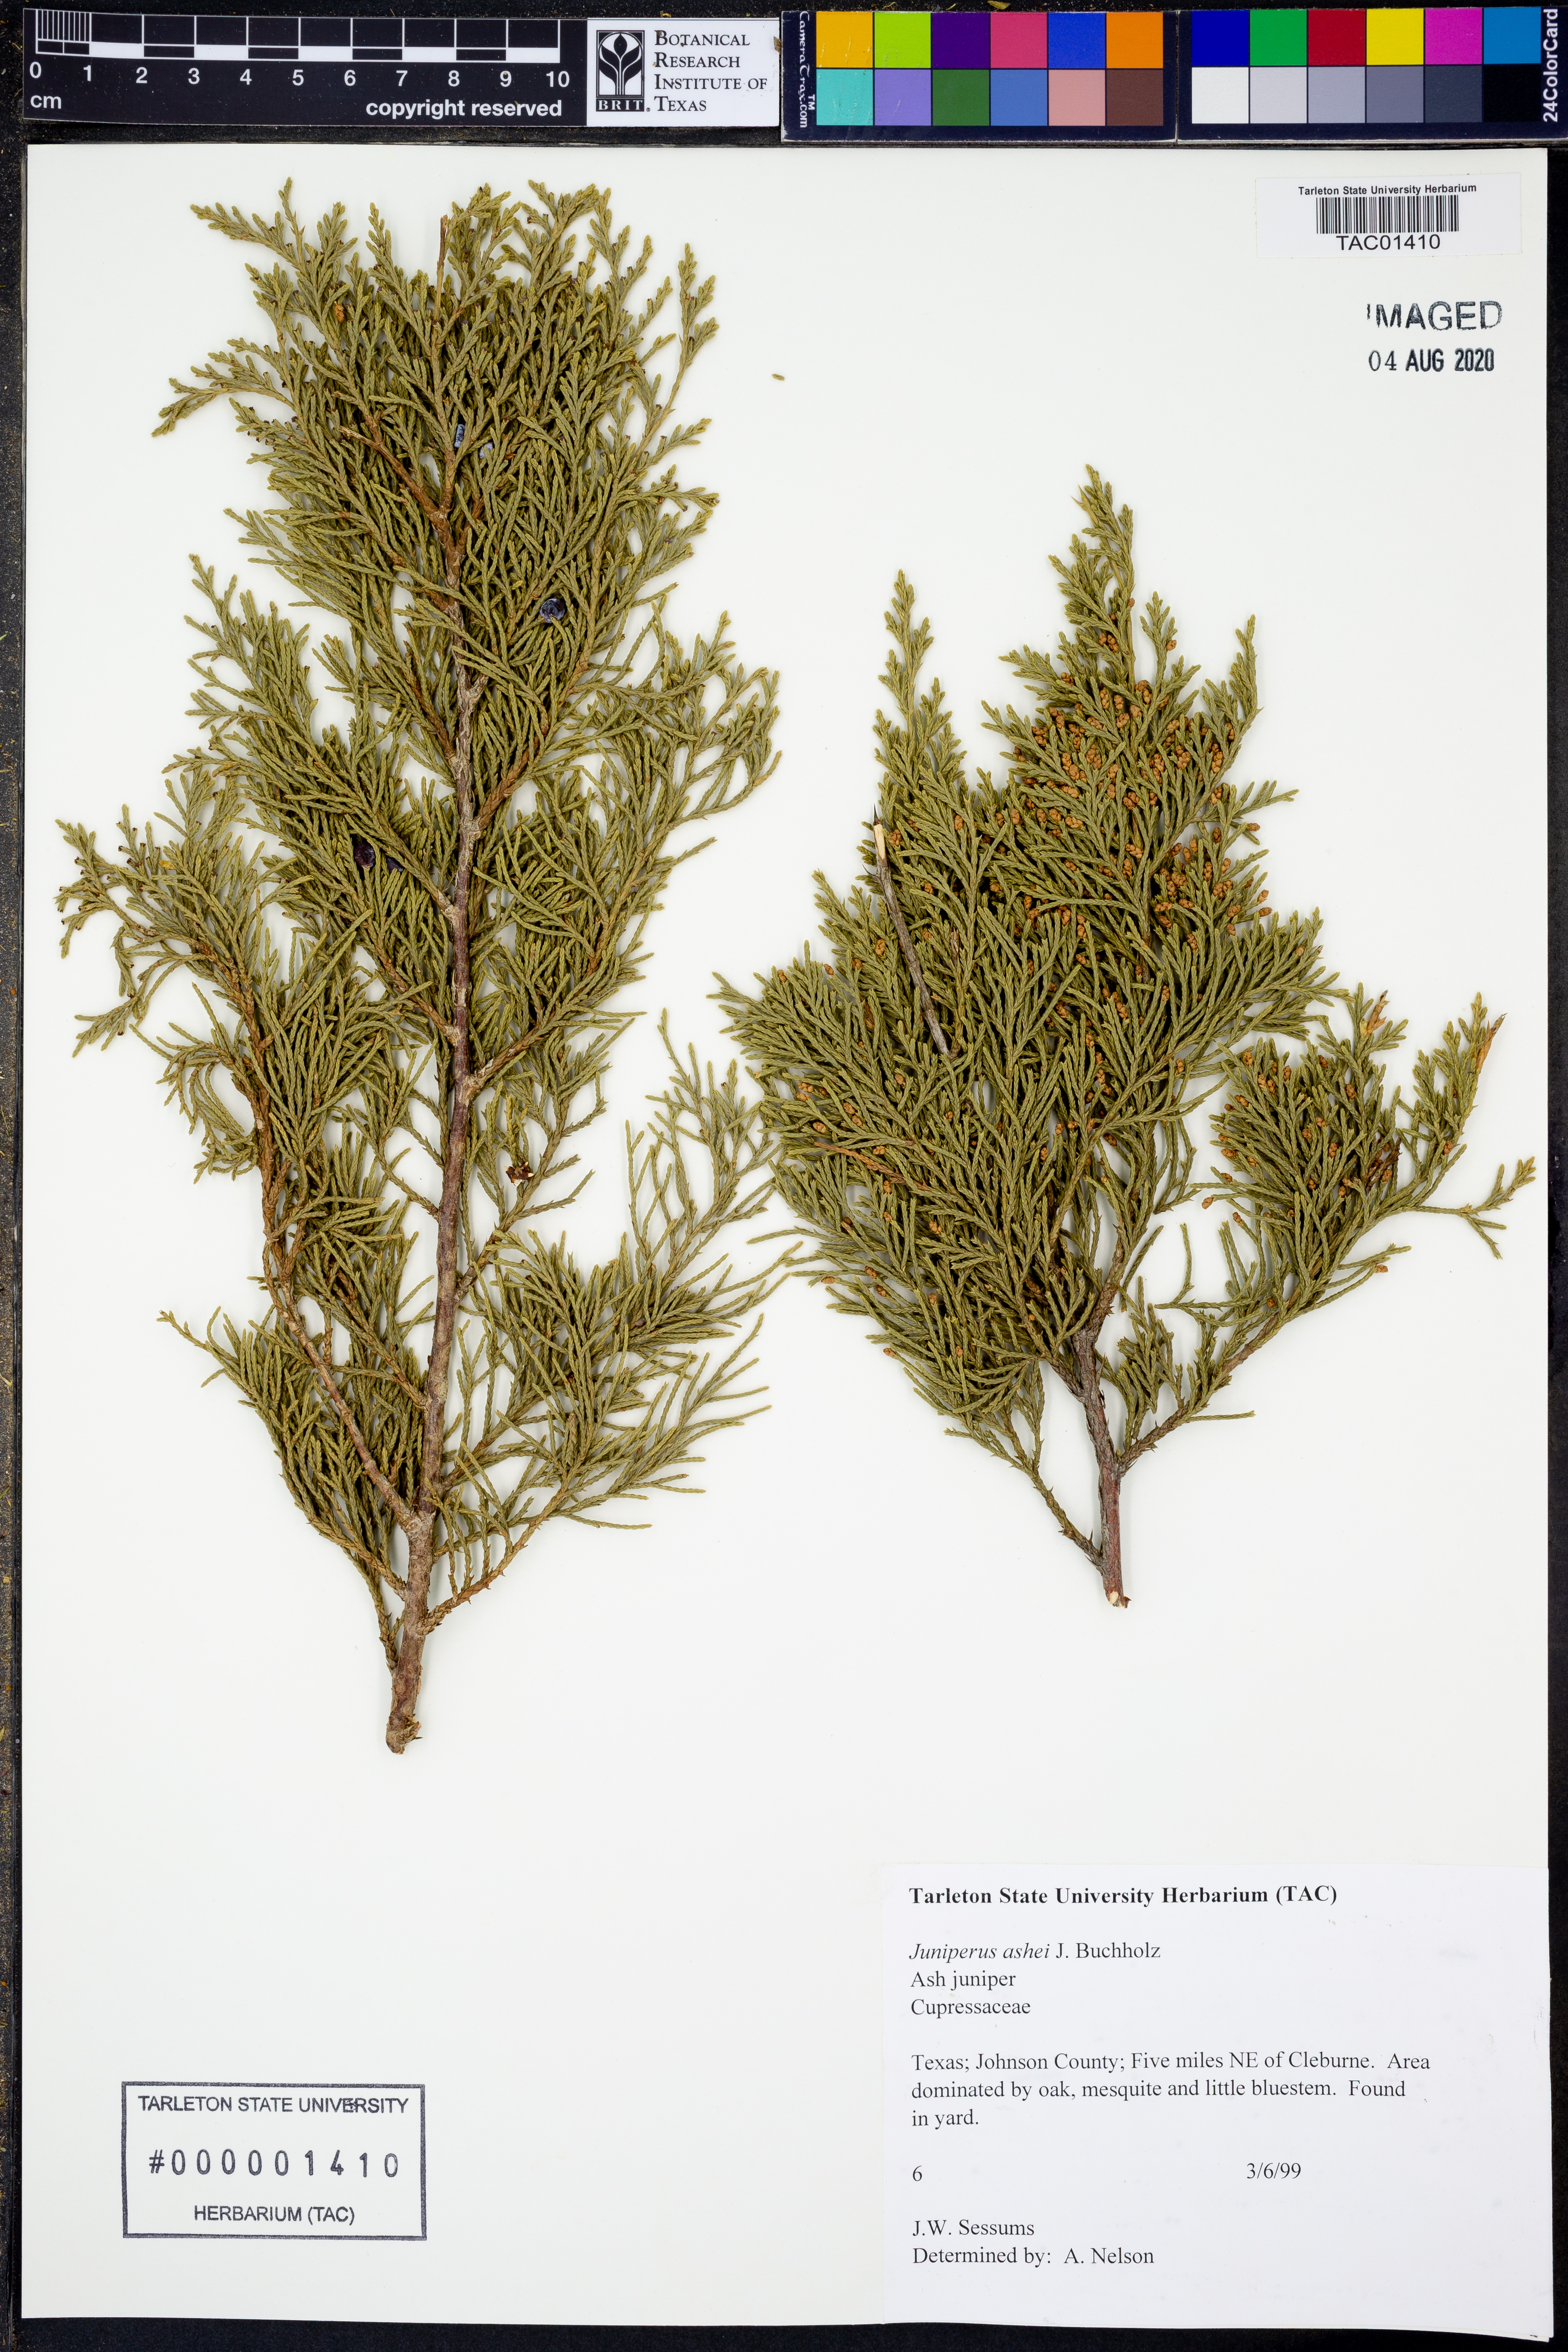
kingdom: Plantae
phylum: Tracheophyta
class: Pinopsida
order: Pinales
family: Cupressaceae
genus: Juniperus
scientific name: Juniperus ashei
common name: Mexican juniper
